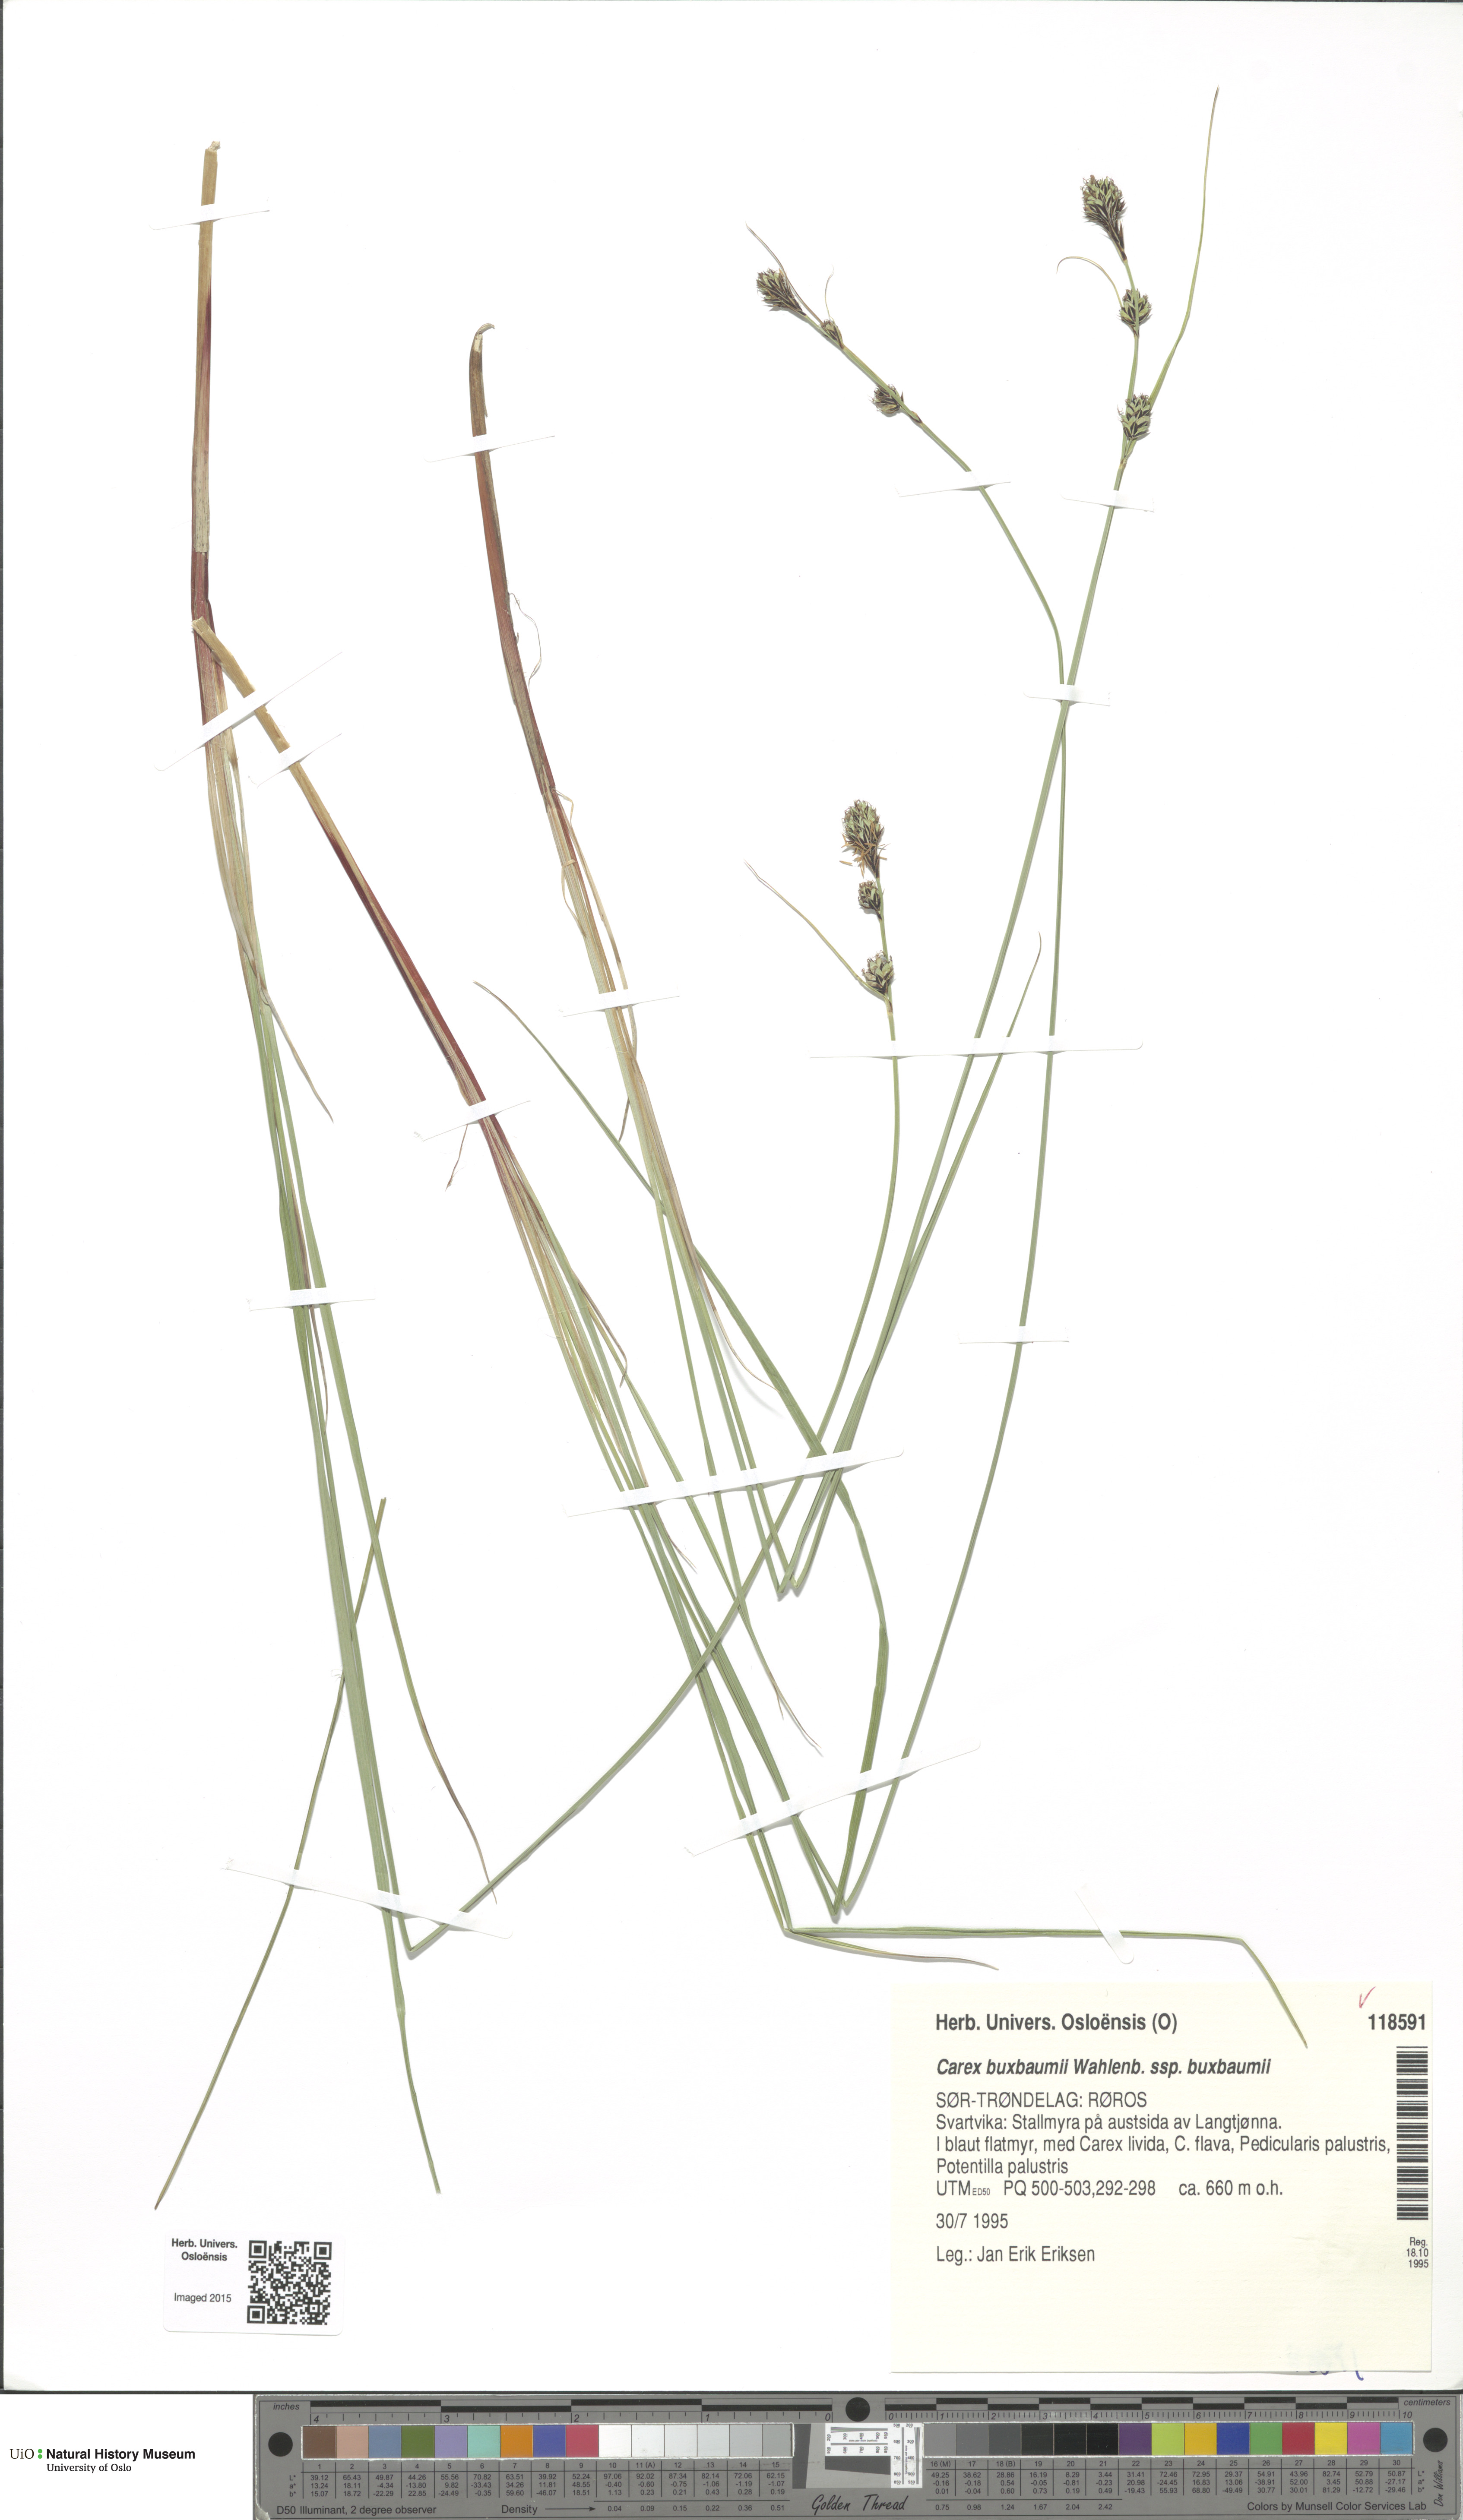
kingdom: Plantae
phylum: Tracheophyta
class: Liliopsida
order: Poales
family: Cyperaceae
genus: Carex
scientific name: Carex buxbaumii
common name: Club sedge
